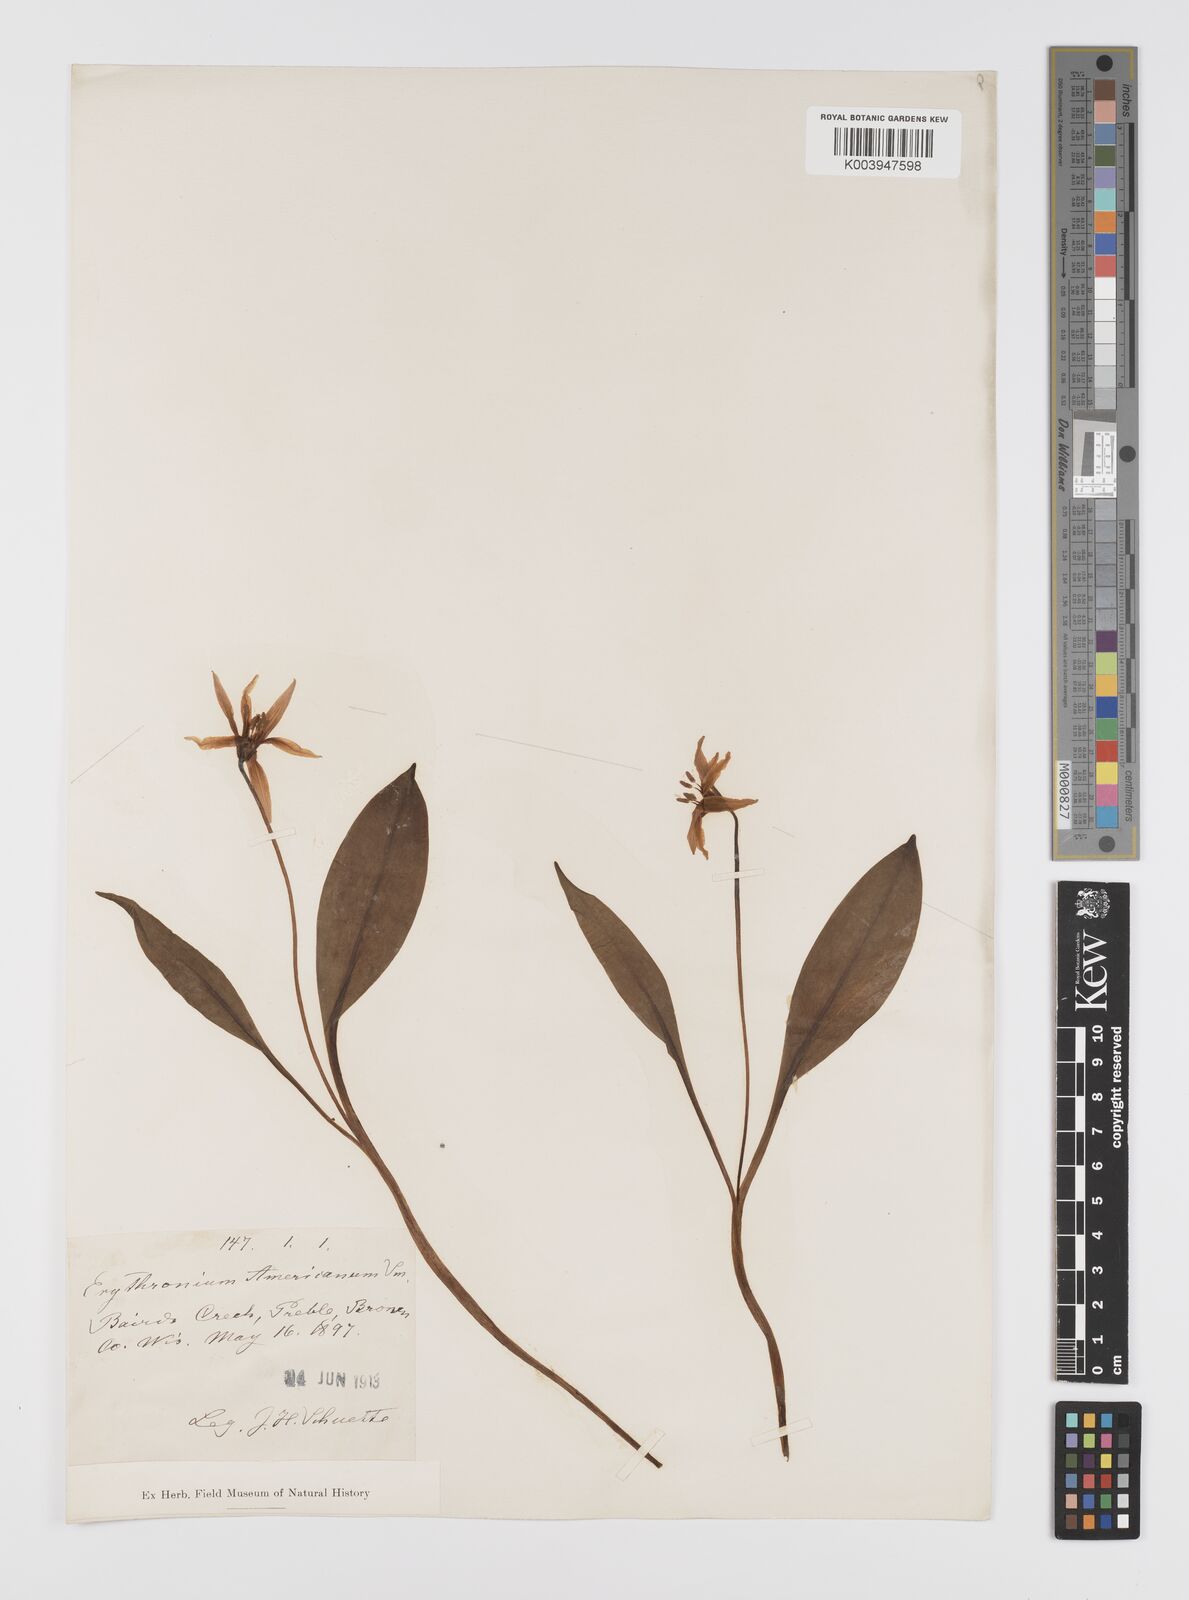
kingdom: Plantae
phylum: Tracheophyta
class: Liliopsida
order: Liliales
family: Liliaceae
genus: Erythronium
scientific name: Erythronium grandiflorum
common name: Avalanche-lily
